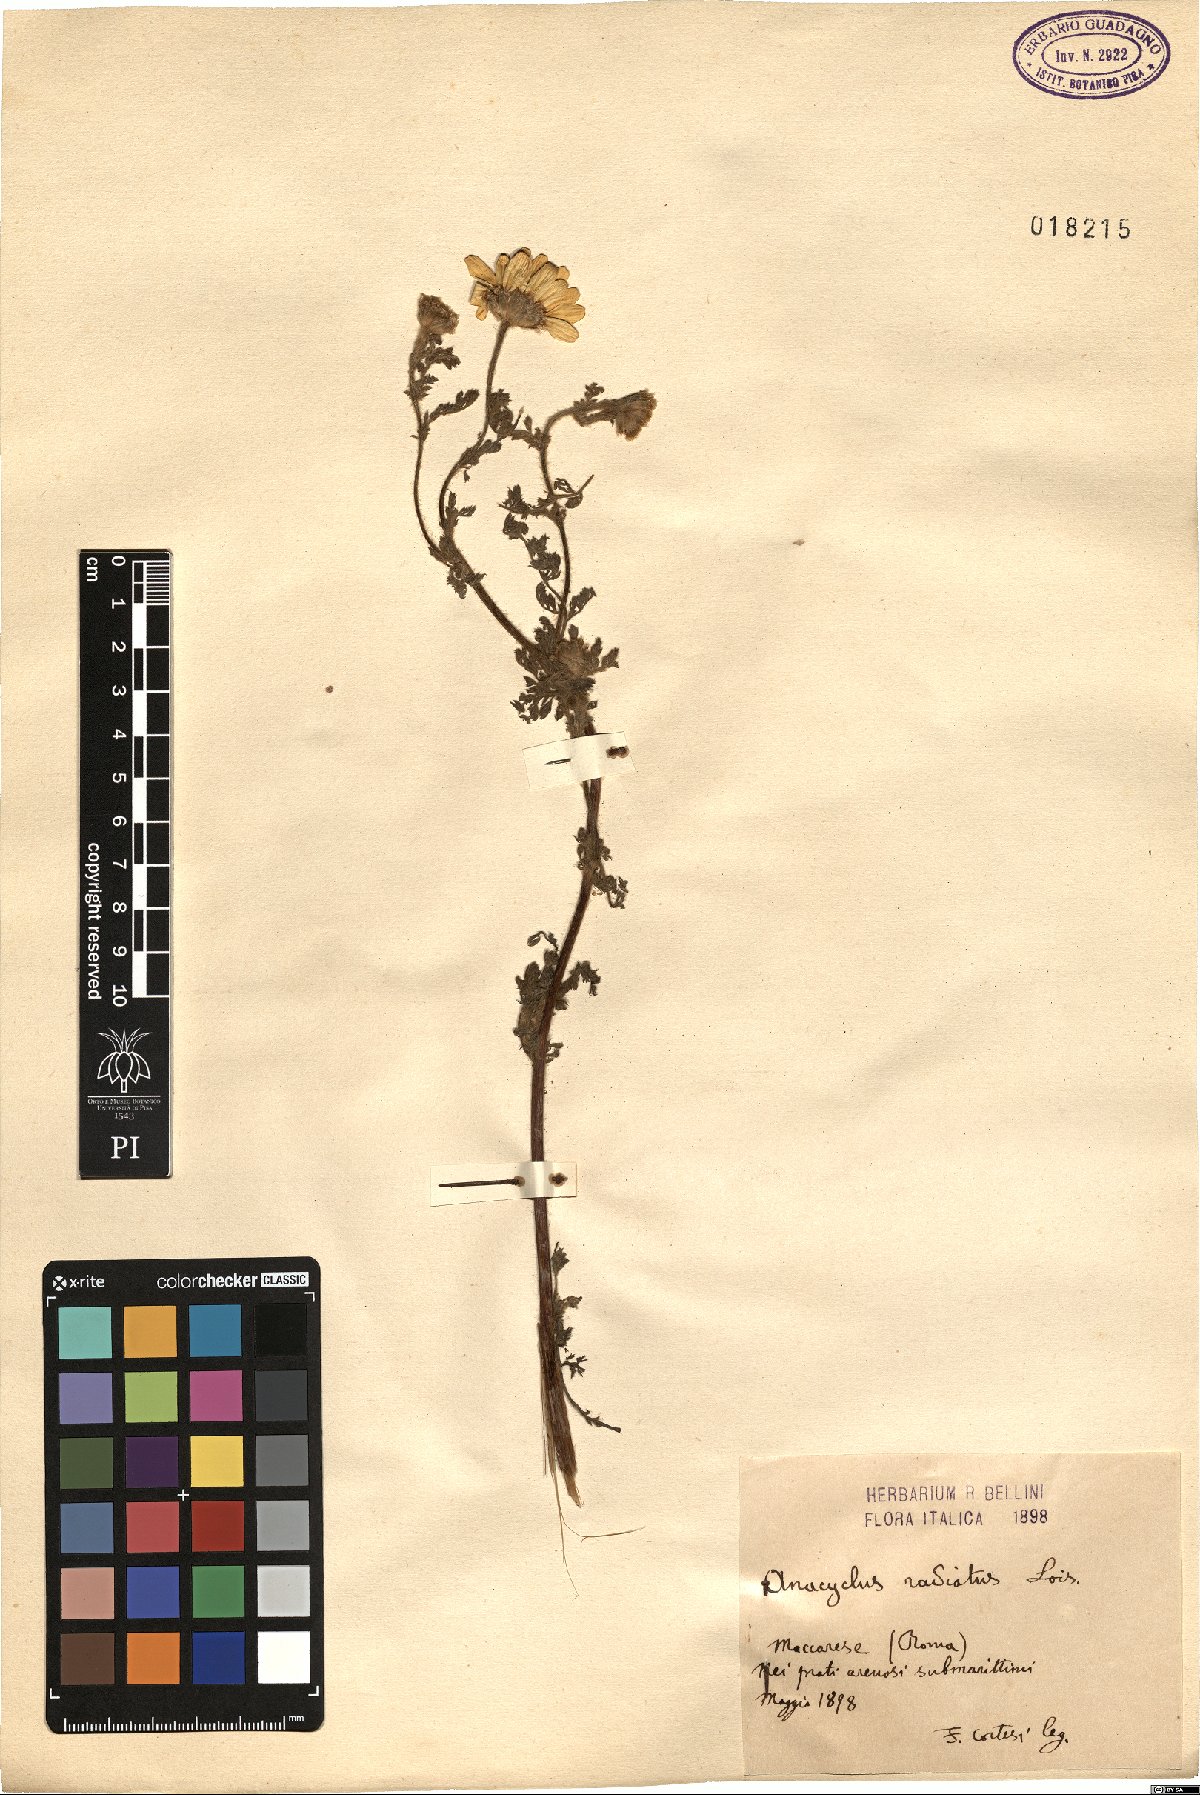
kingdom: Plantae
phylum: Tracheophyta
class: Magnoliopsida
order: Asterales
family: Asteraceae
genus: Anacyclus
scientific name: Anacyclus radiatus
